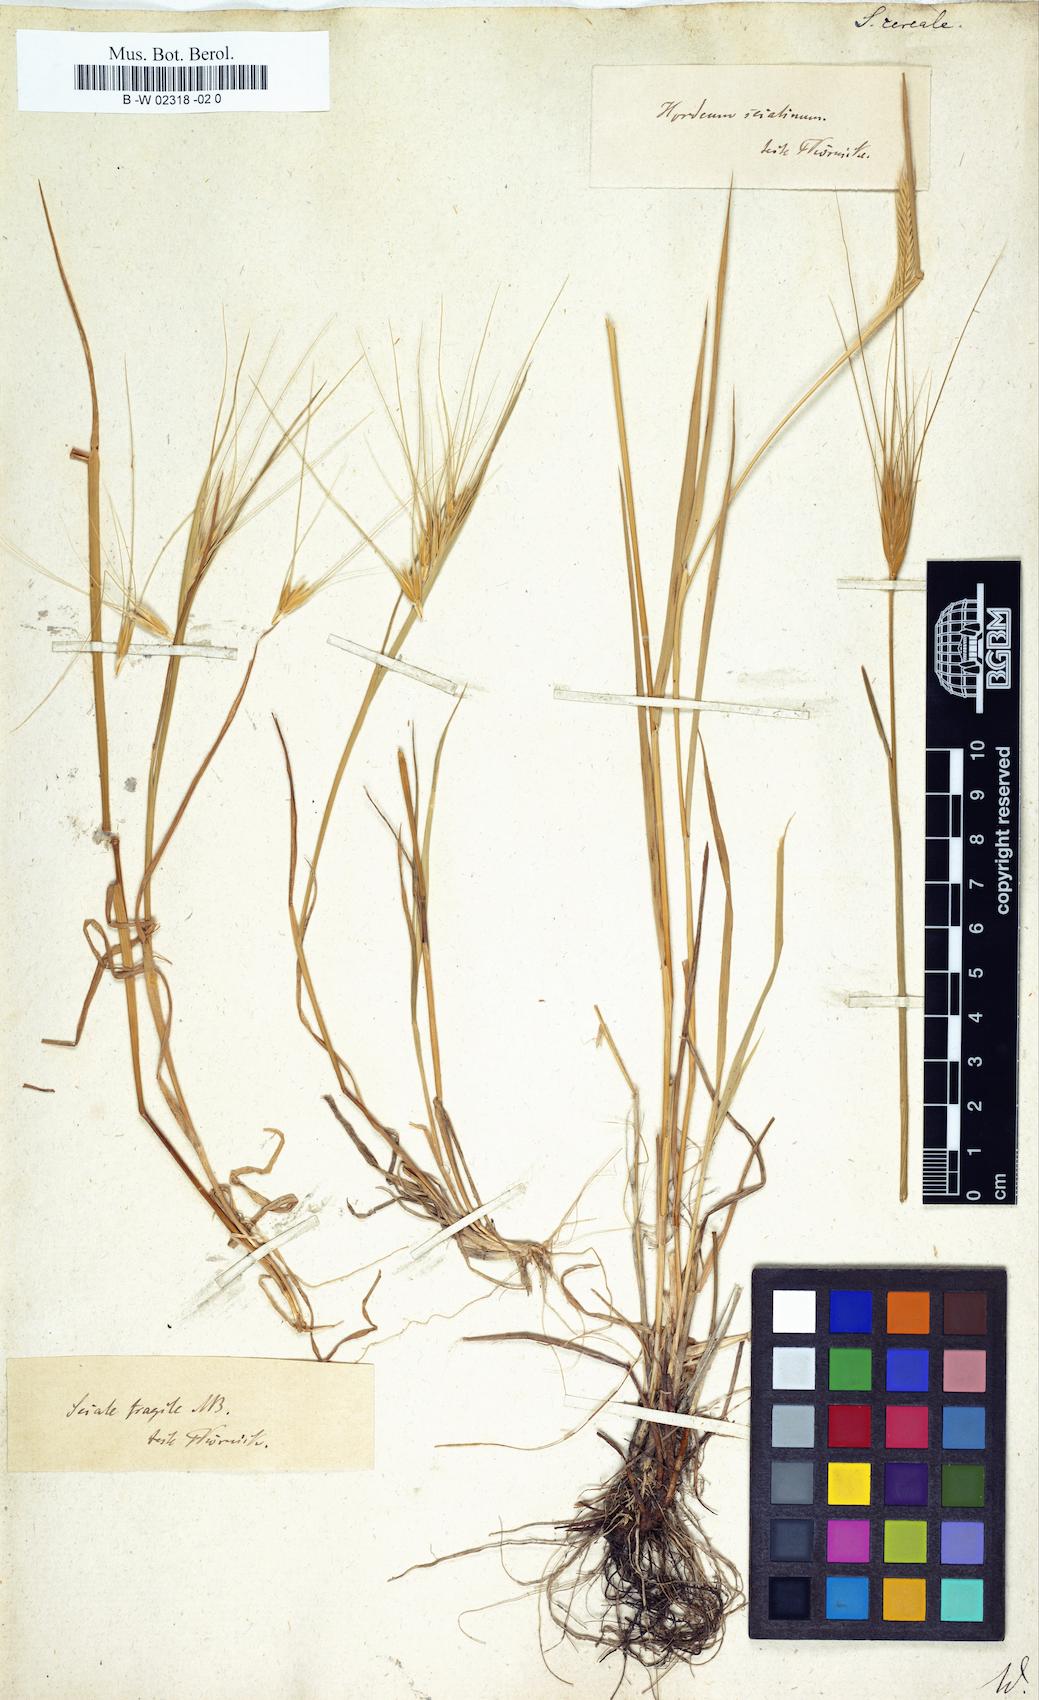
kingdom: Plantae
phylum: Tracheophyta
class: Liliopsida
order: Poales
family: Poaceae
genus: Secale
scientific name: Secale cereale
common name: Rye
